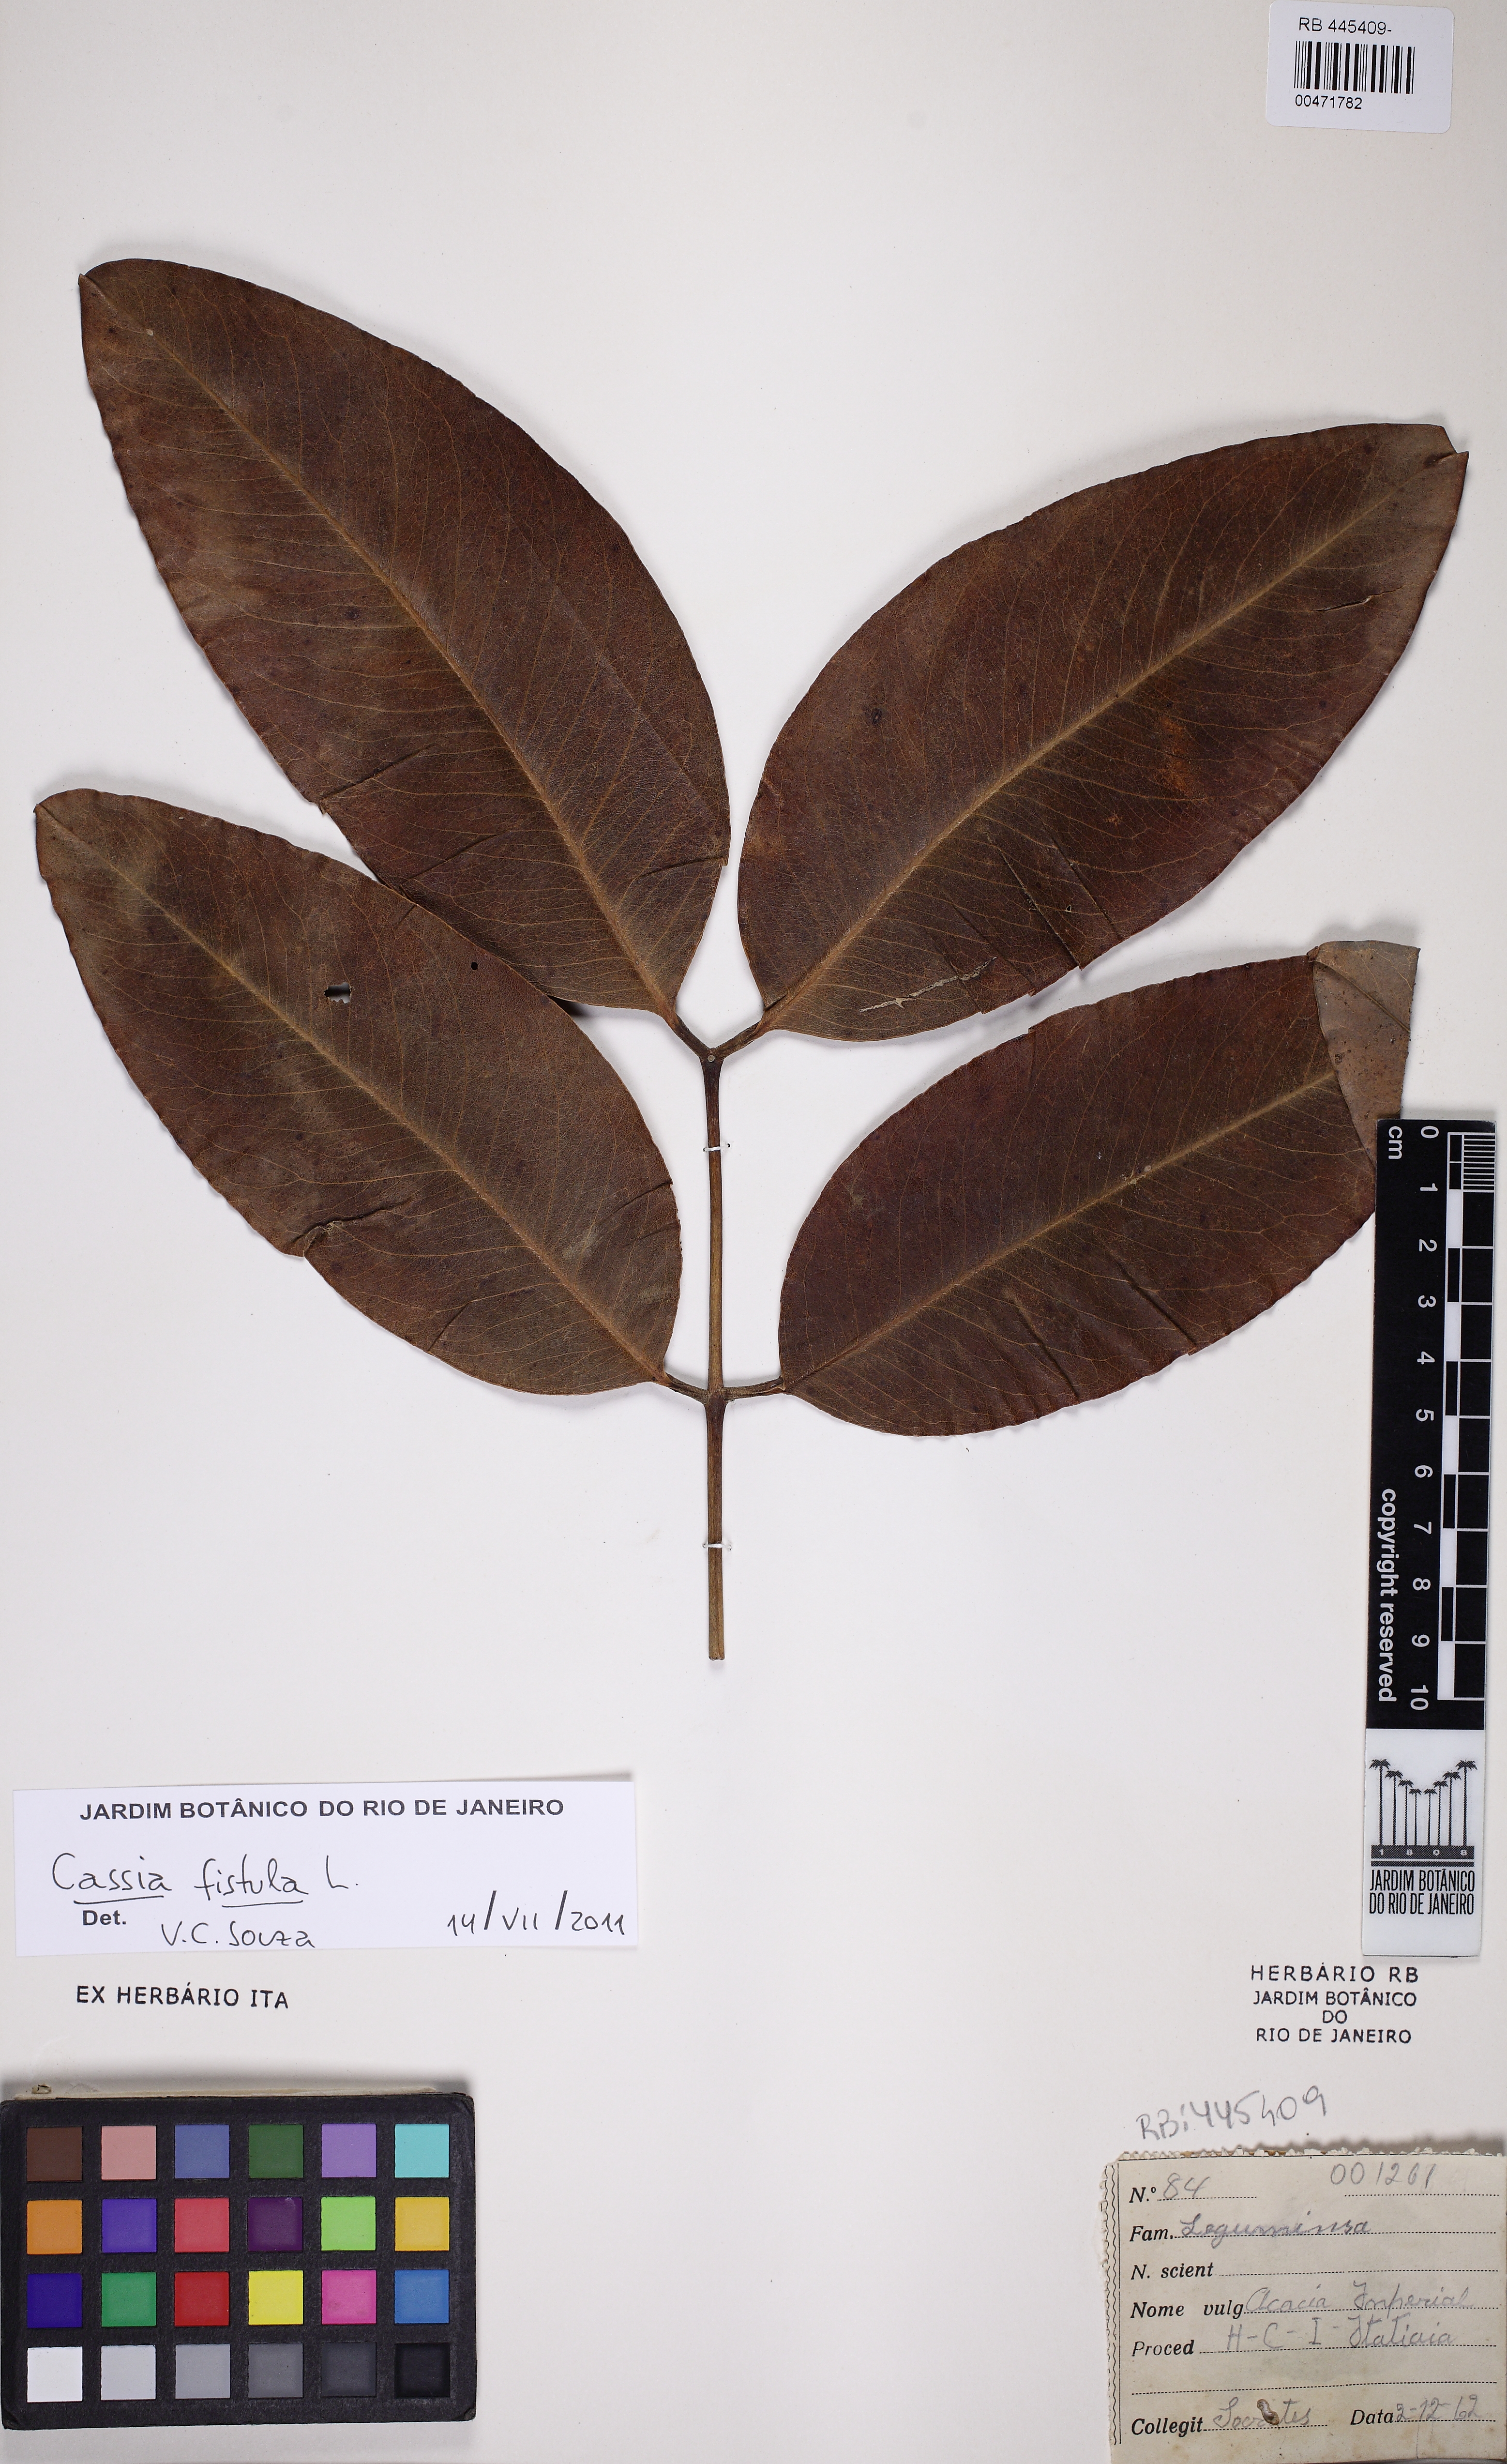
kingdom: Plantae
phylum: Tracheophyta
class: Magnoliopsida
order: Fabales
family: Fabaceae
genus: Cassia
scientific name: Cassia fistula
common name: Golden shower
